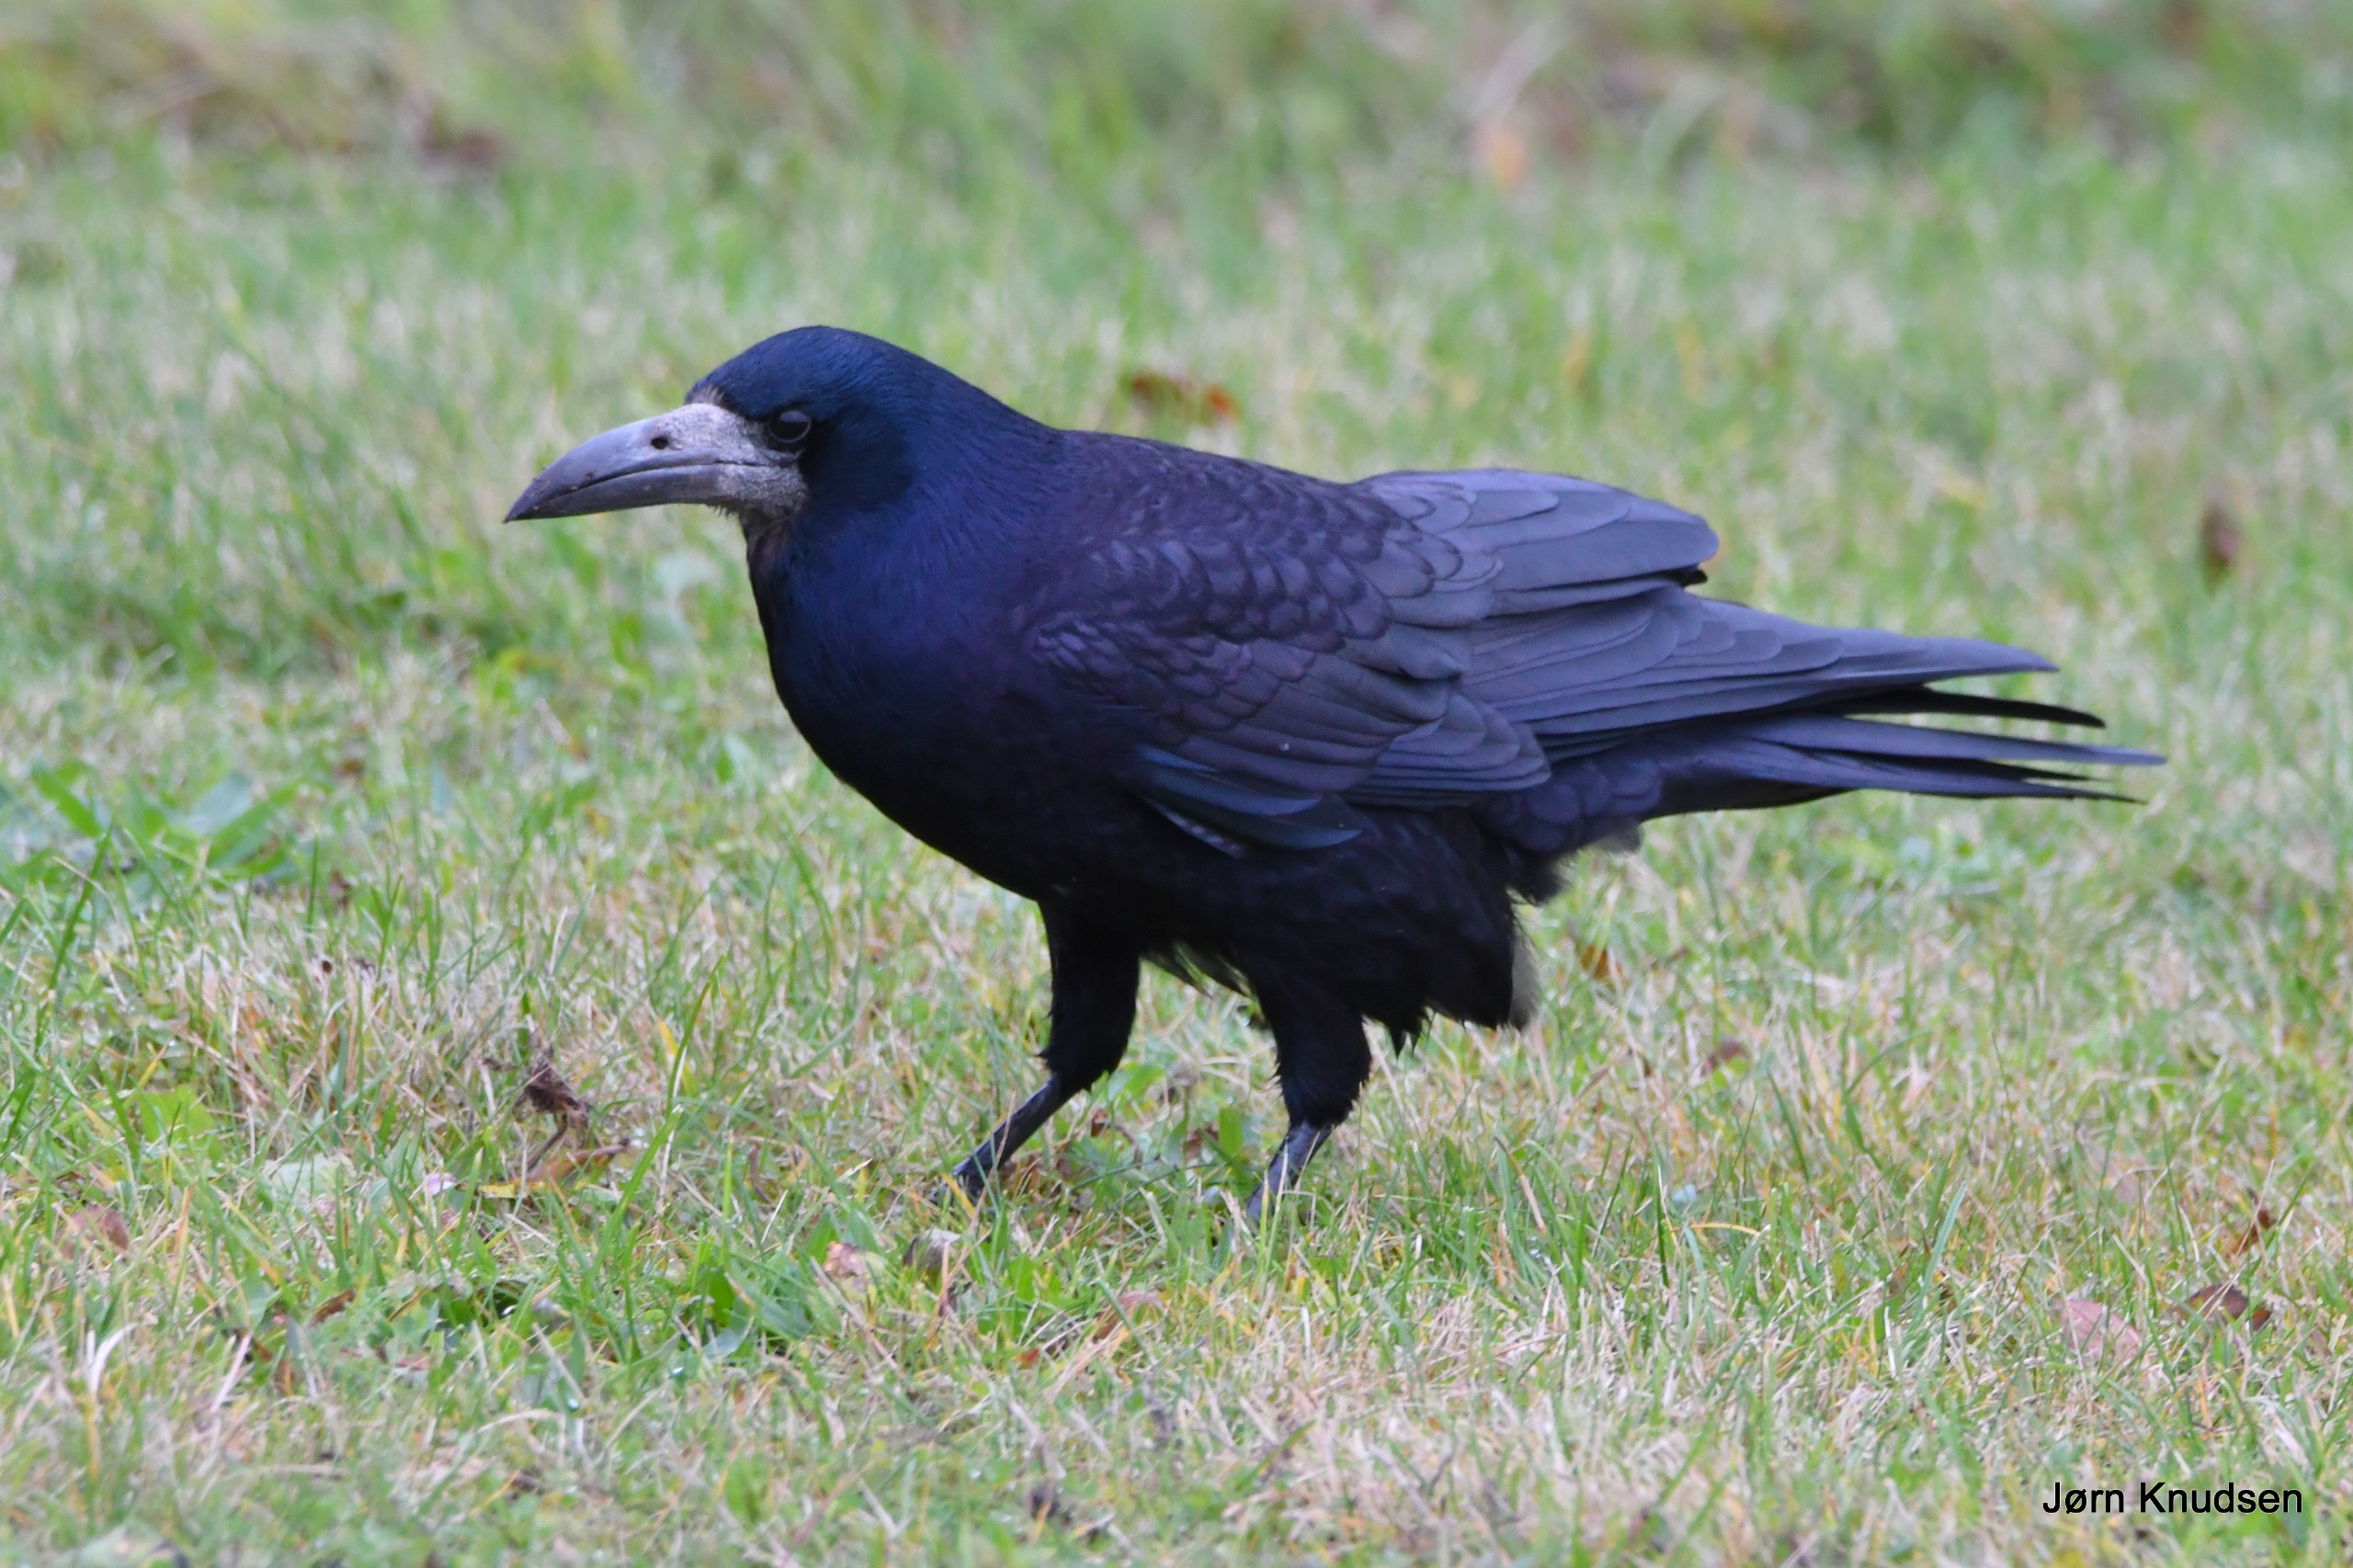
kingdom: Animalia
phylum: Chordata
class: Aves
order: Passeriformes
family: Corvidae
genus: Corvus
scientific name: Corvus frugilegus
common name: Råge
